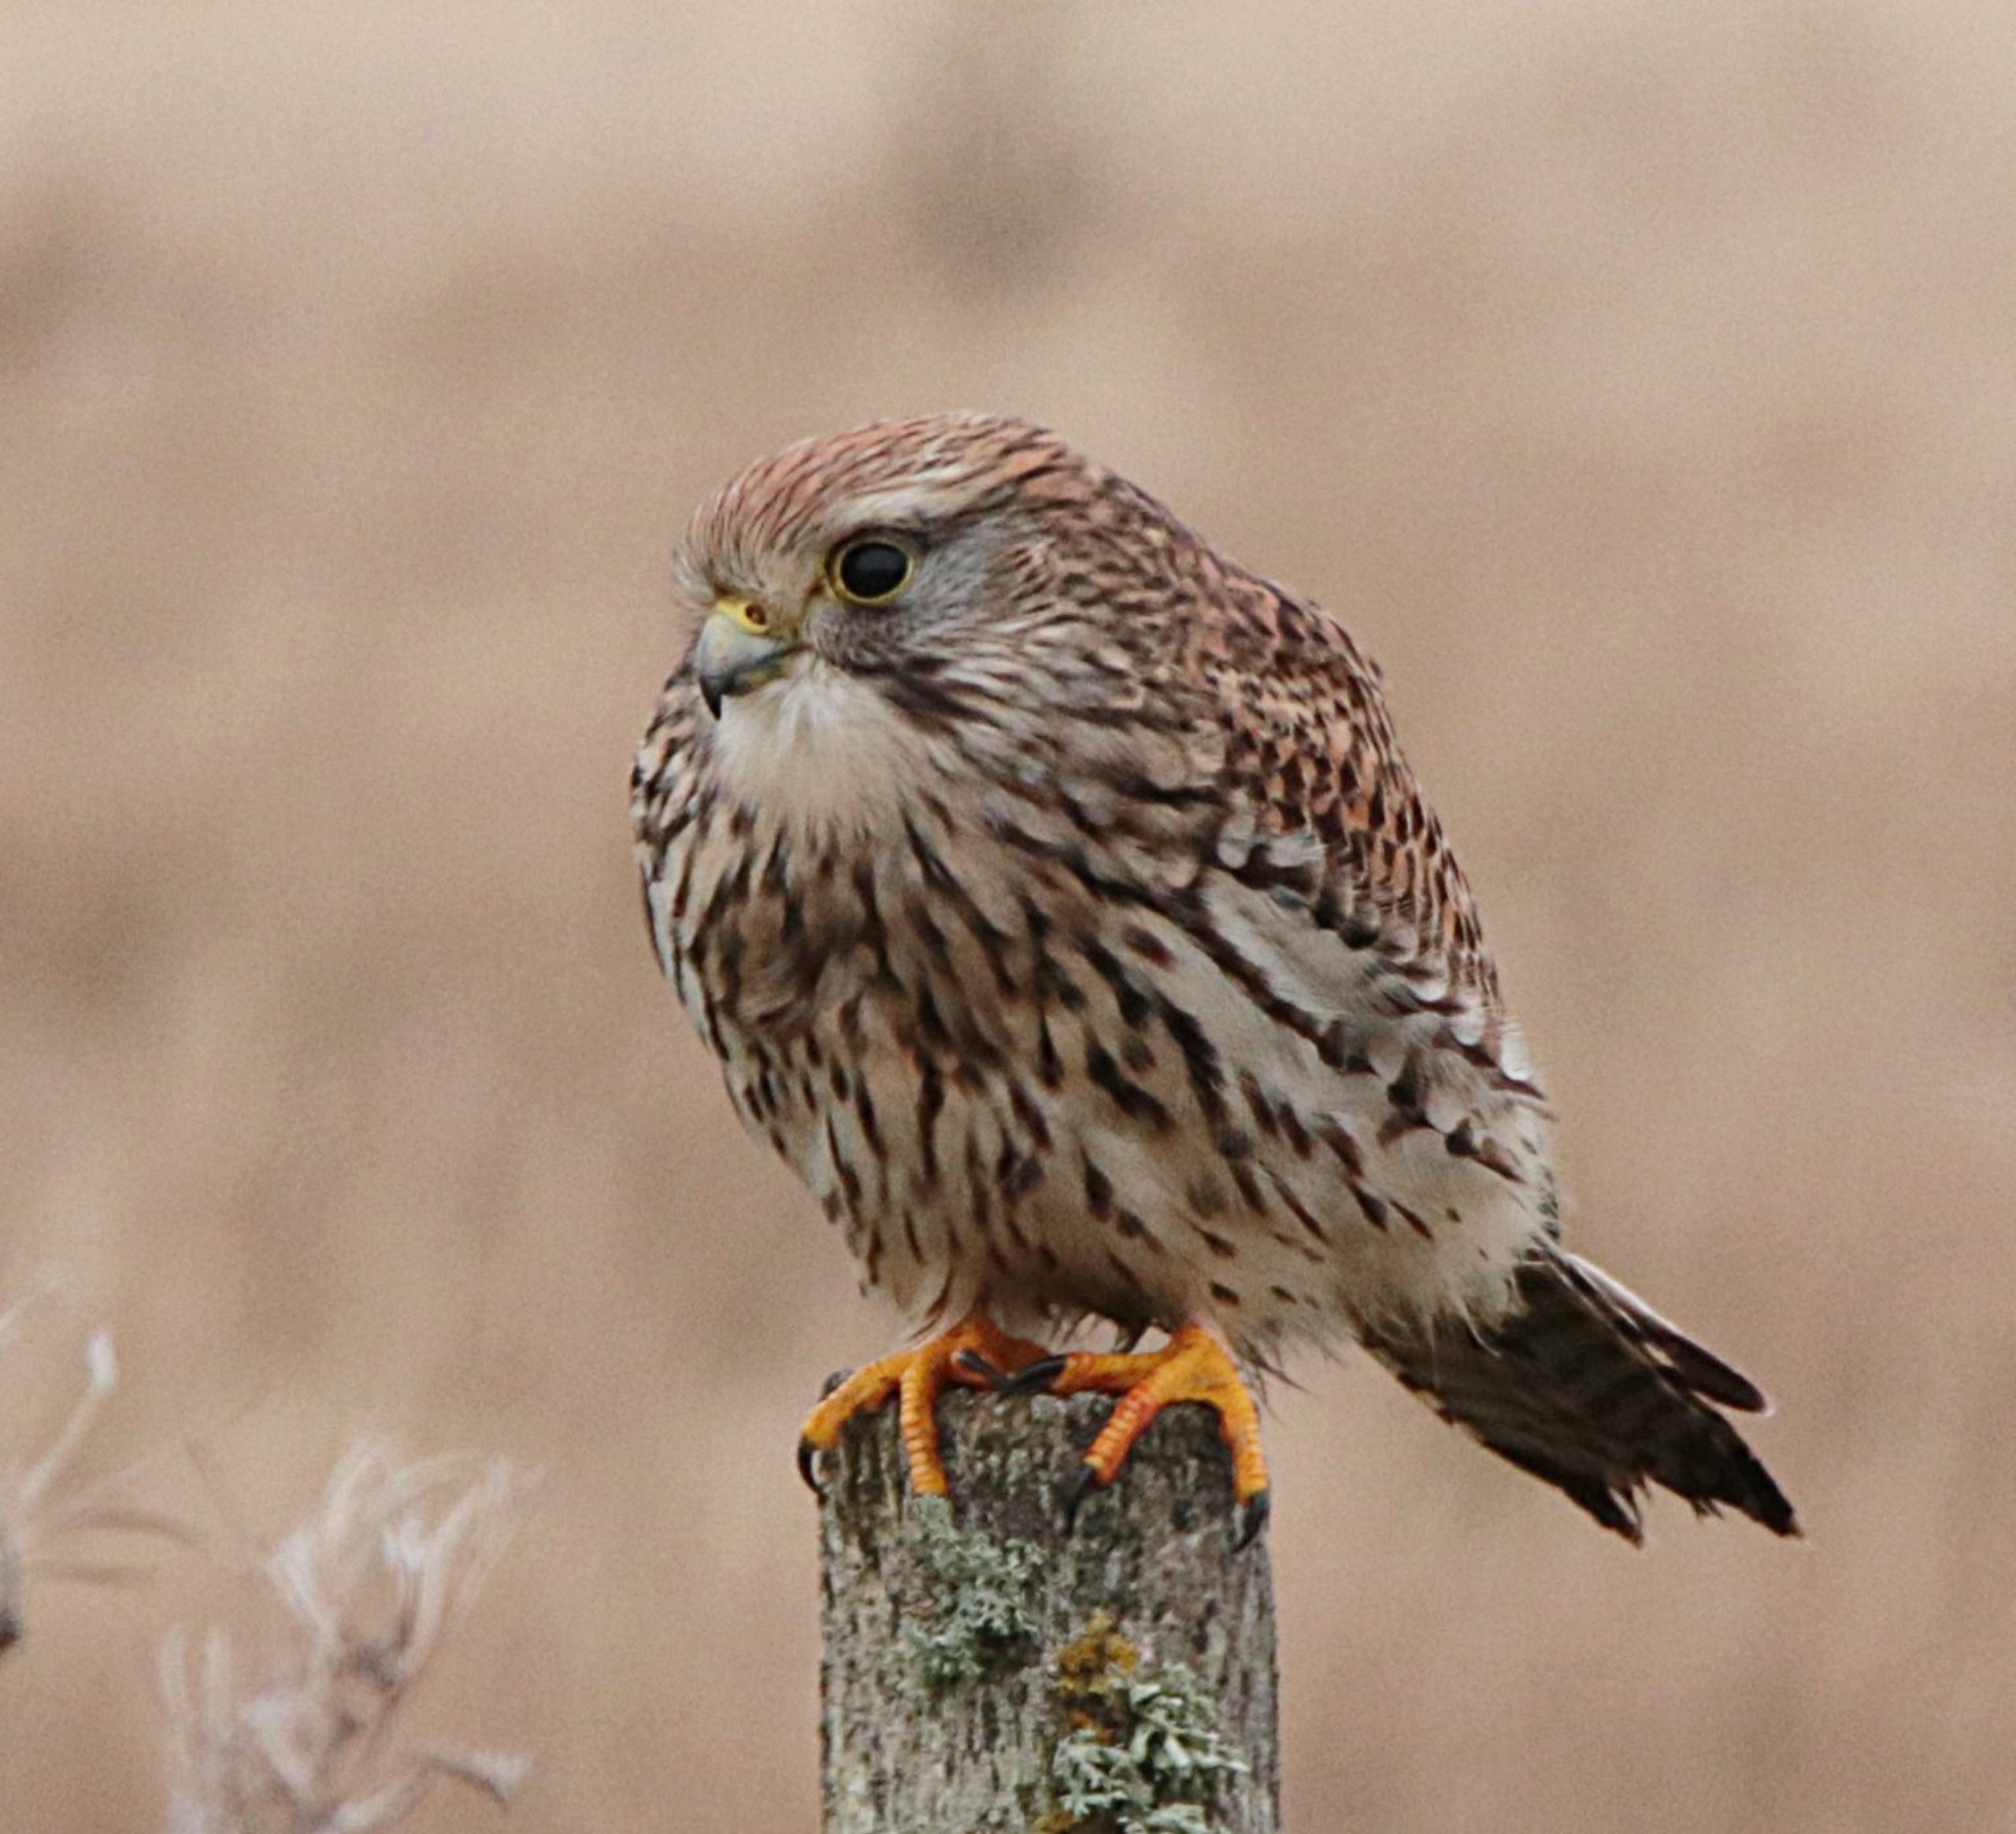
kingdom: Animalia
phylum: Chordata
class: Aves
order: Falconiformes
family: Falconidae
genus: Falco
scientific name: Falco tinnunculus
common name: Tårnfalk
